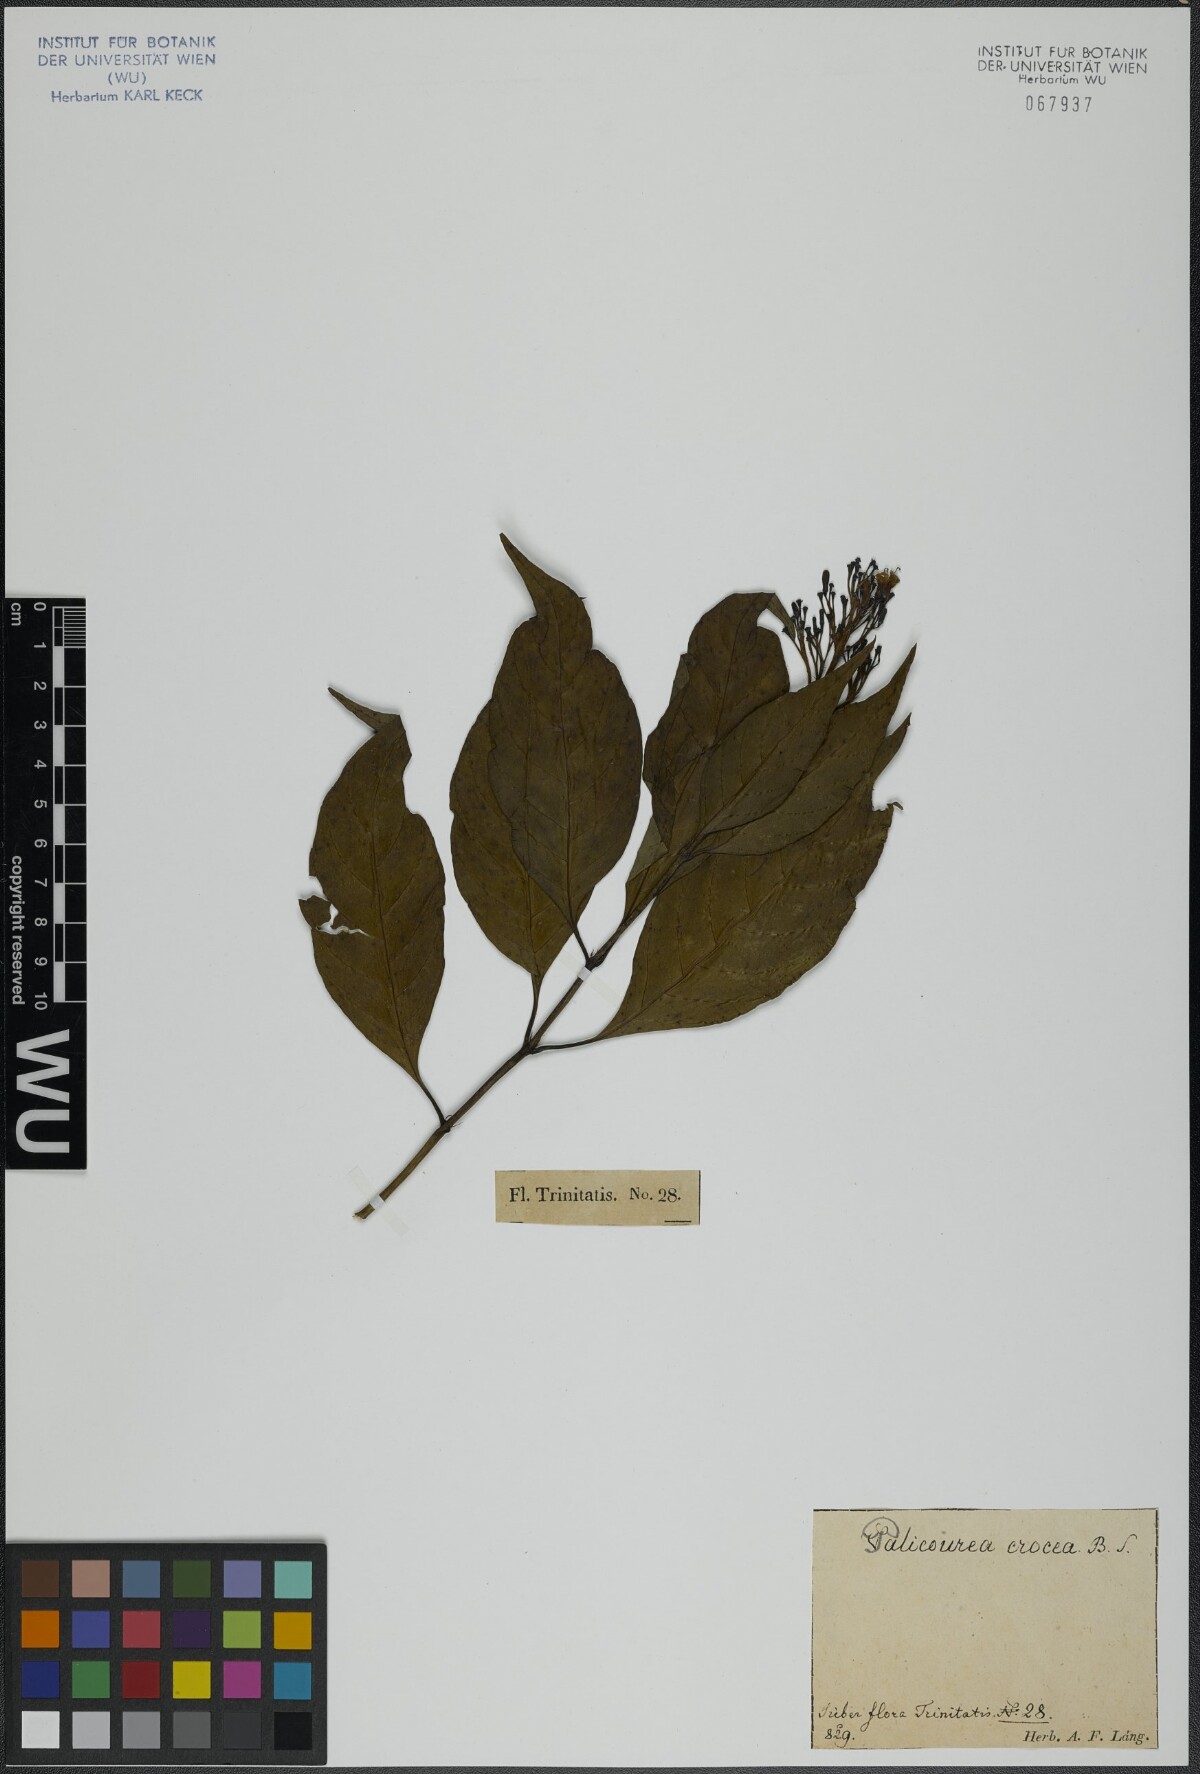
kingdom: Plantae
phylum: Tracheophyta
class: Magnoliopsida
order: Gentianales
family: Rubiaceae
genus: Palicourea
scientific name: Palicourea crocea
